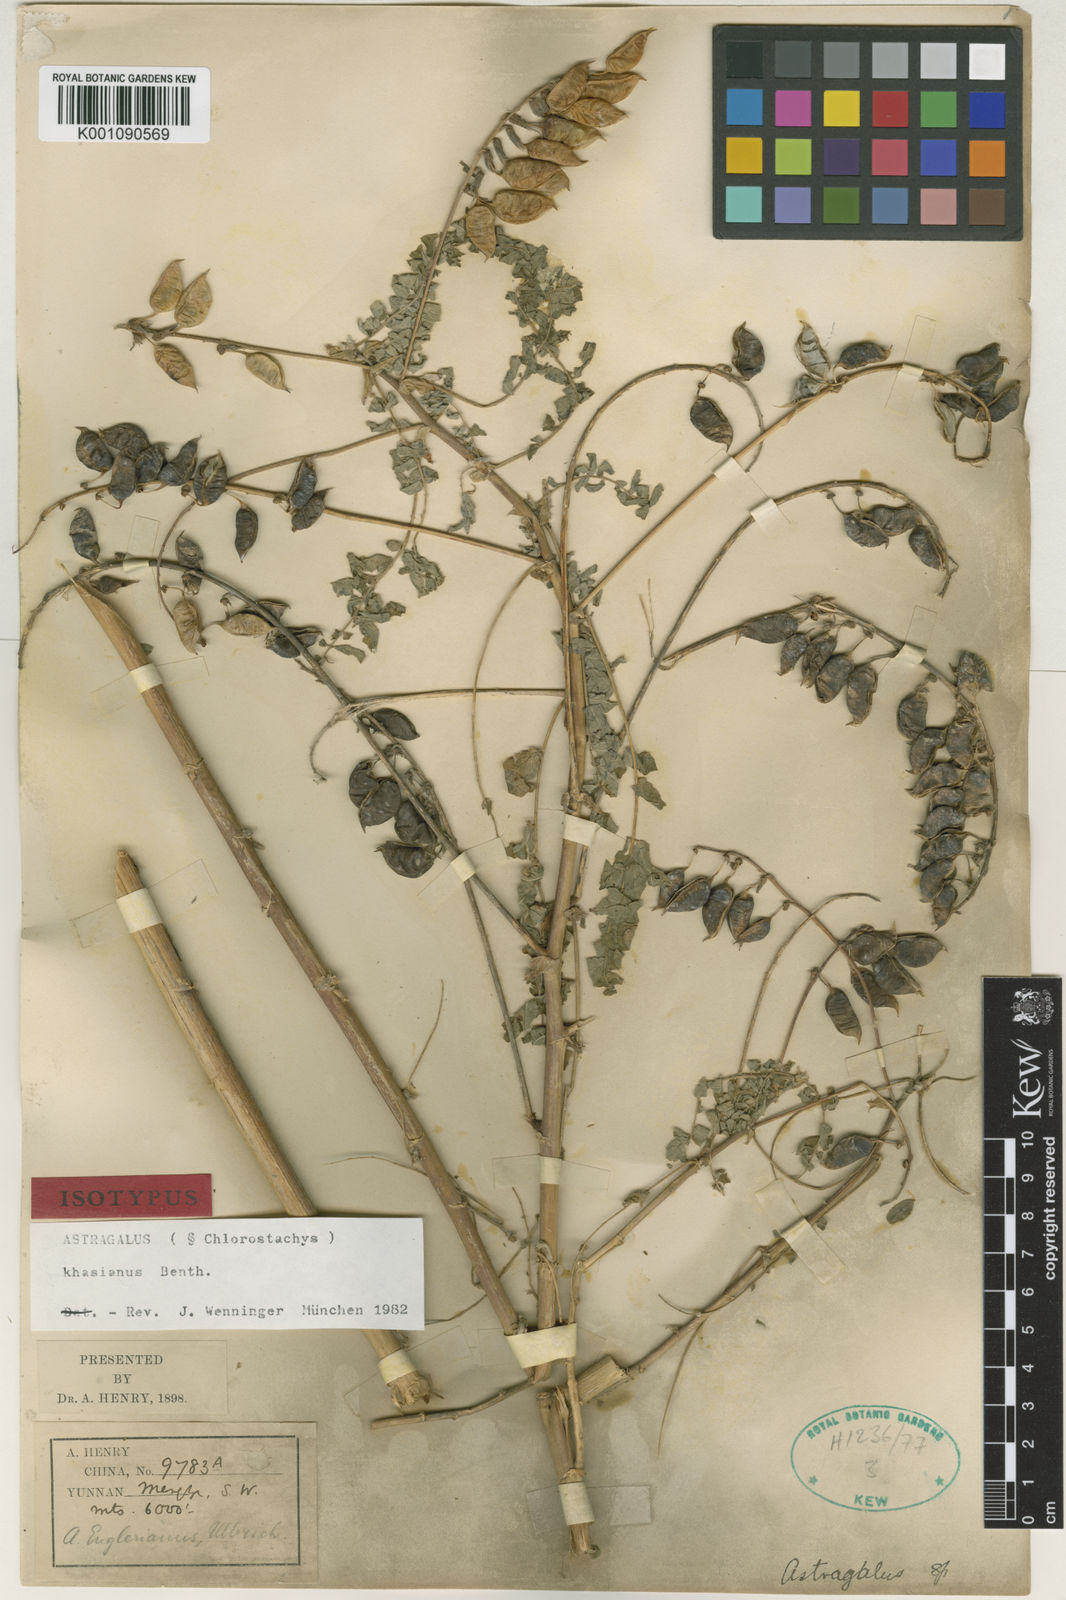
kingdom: Plantae
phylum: Tracheophyta
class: Magnoliopsida
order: Fabales
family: Fabaceae
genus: Astragalus
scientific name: Astragalus
